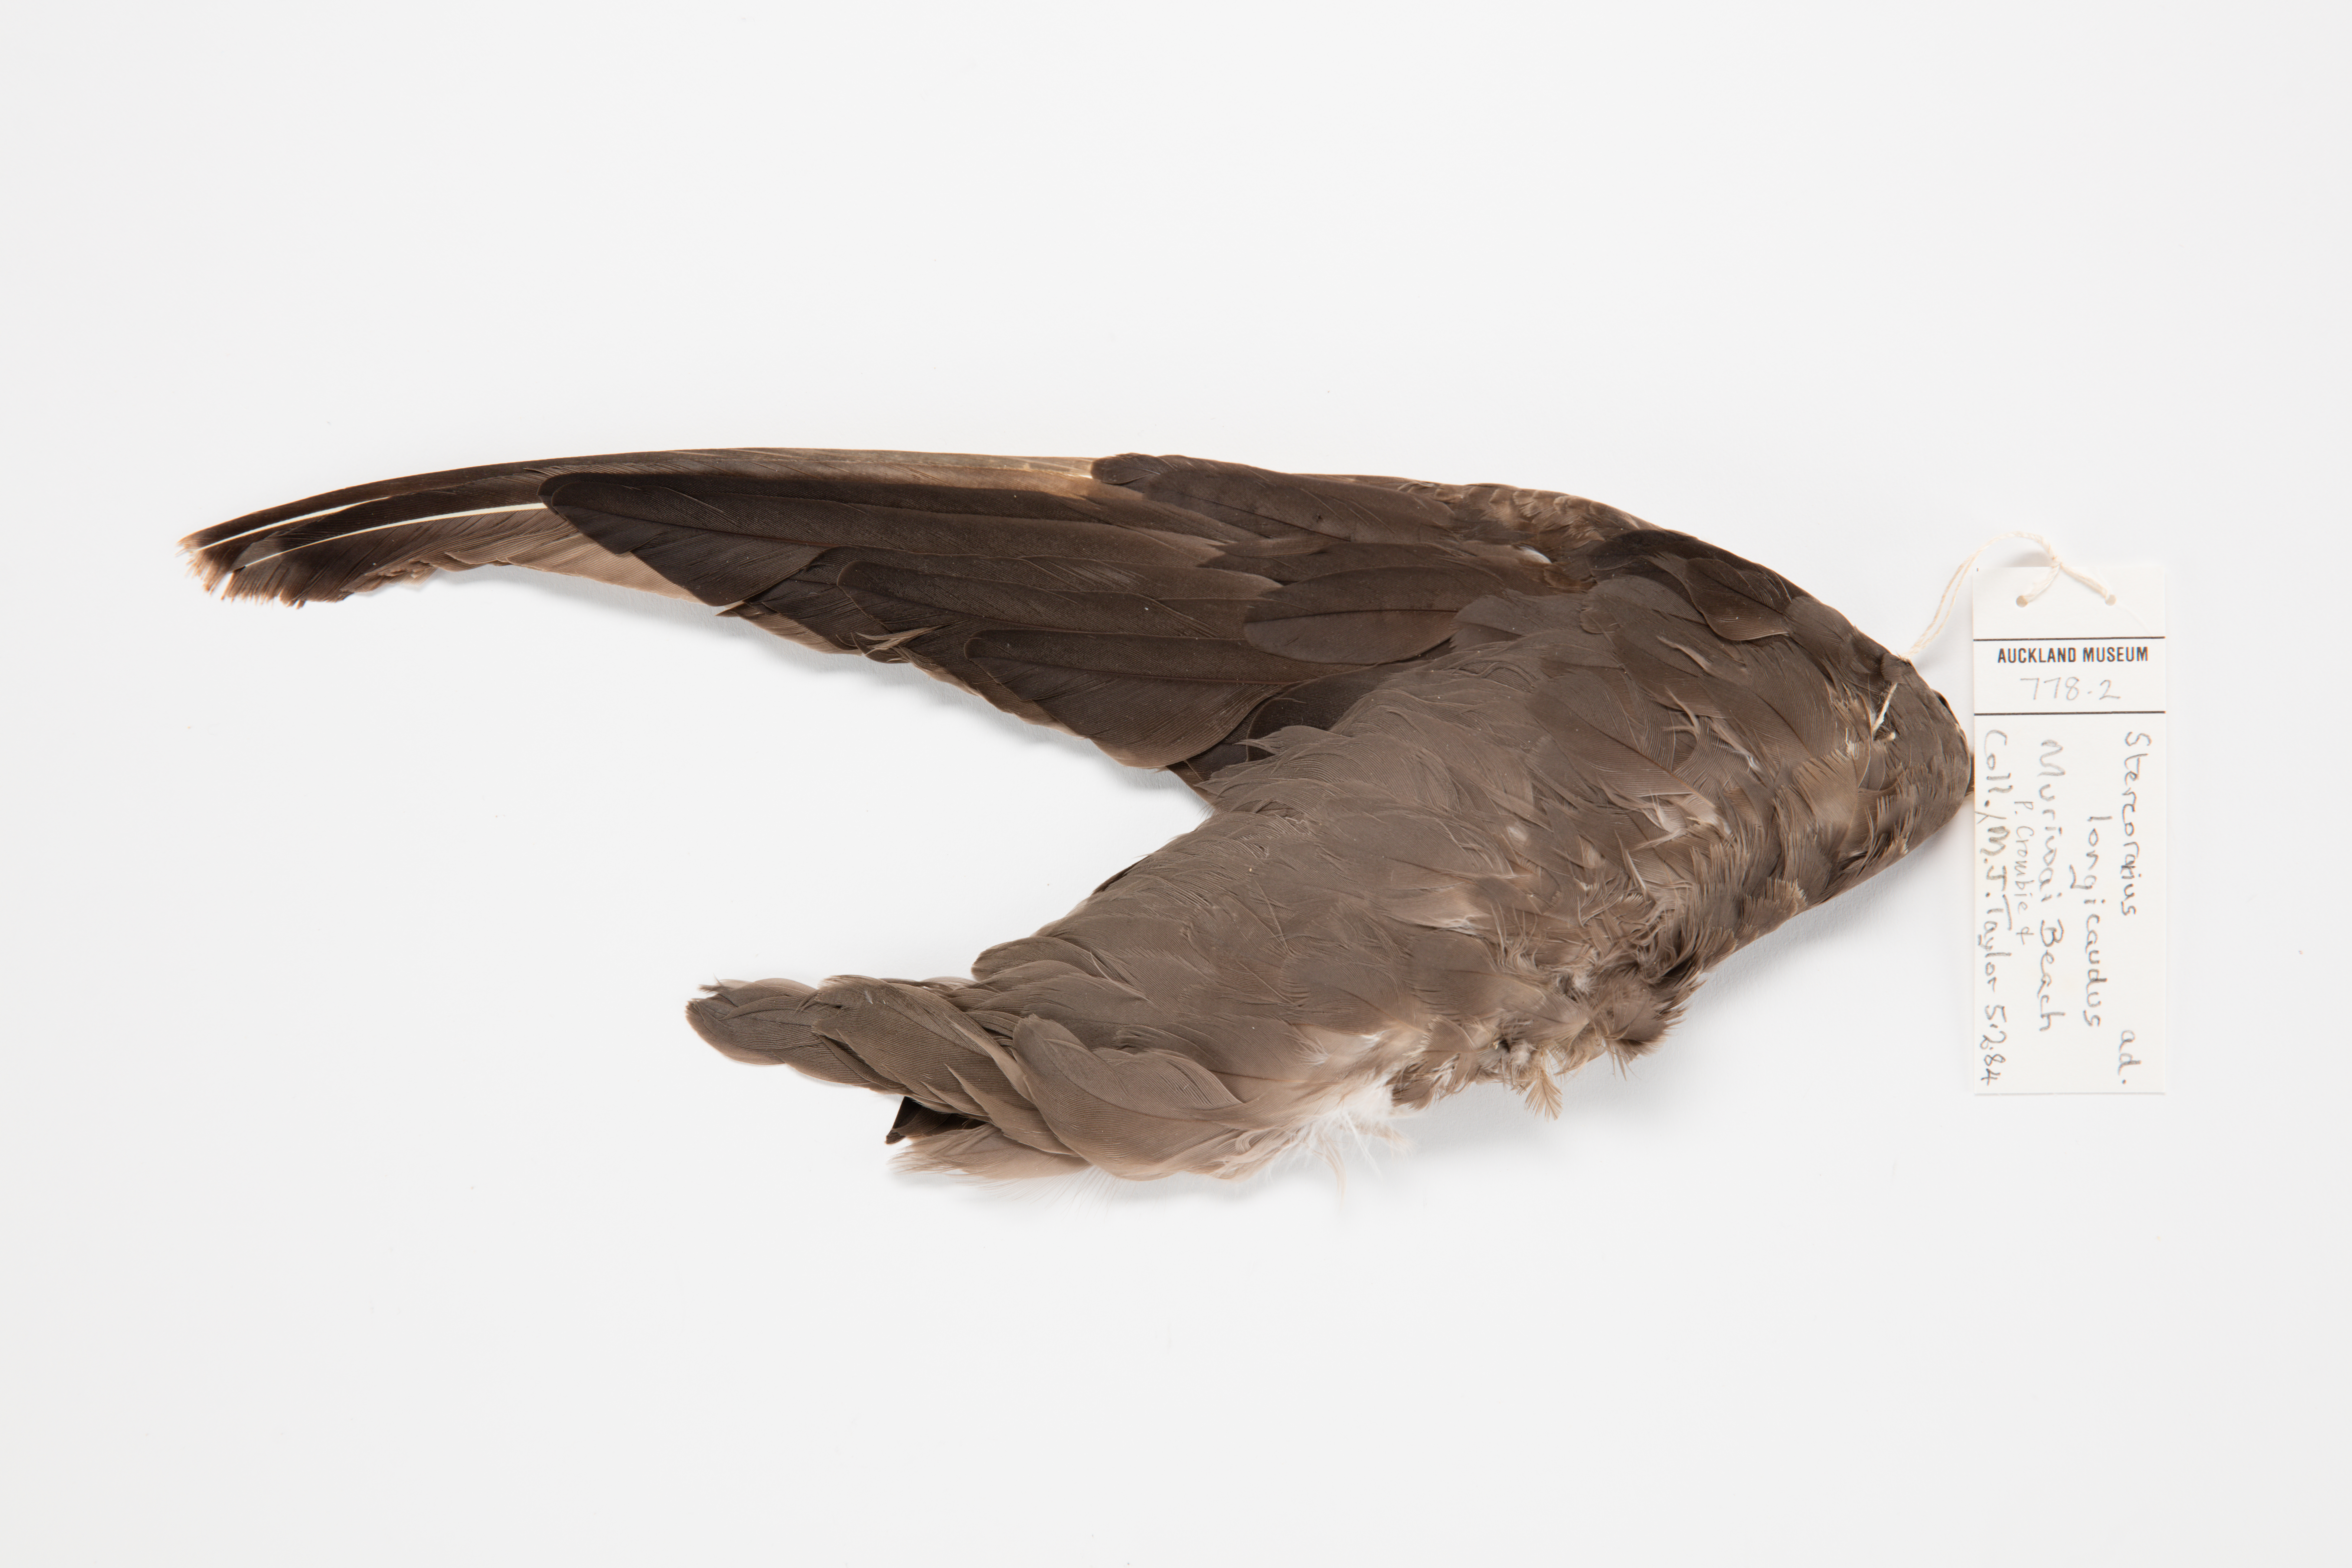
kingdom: Animalia
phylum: Chordata
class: Aves
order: Charadriiformes
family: Stercorariidae
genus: Stercorarius
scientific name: Stercorarius longicaudus
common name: Long-tailed jaeger
